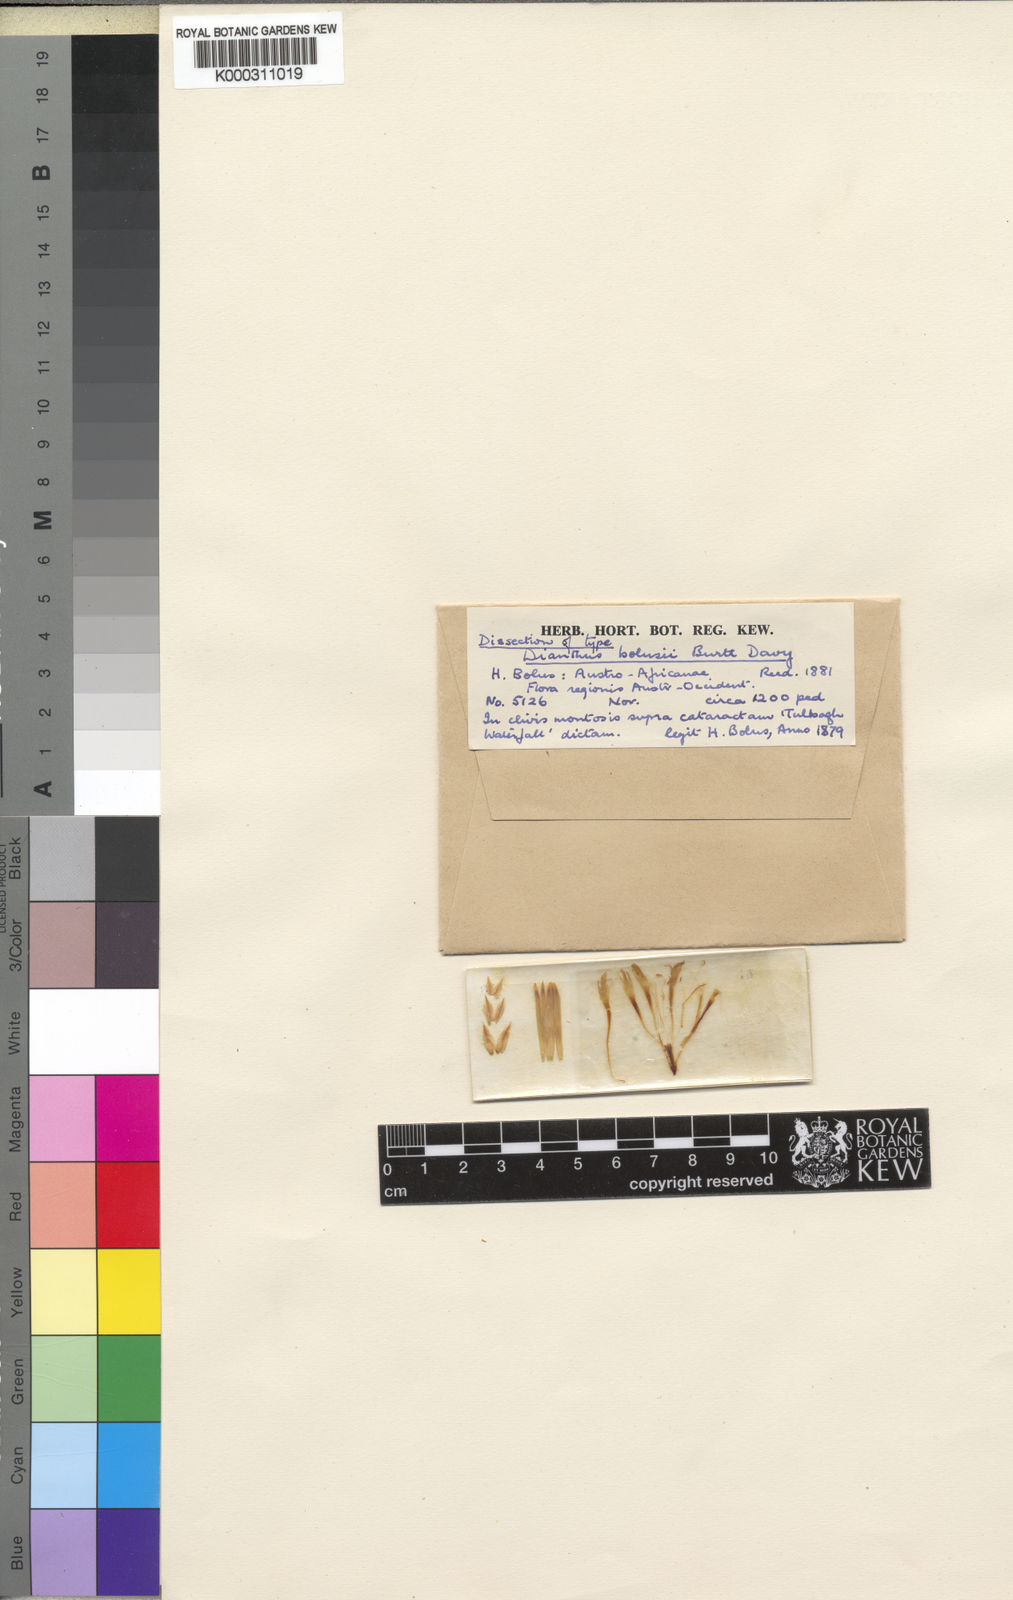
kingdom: Plantae
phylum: Tracheophyta
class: Magnoliopsida
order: Caryophyllales
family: Caryophyllaceae
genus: Dianthus
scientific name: Dianthus bolusii
